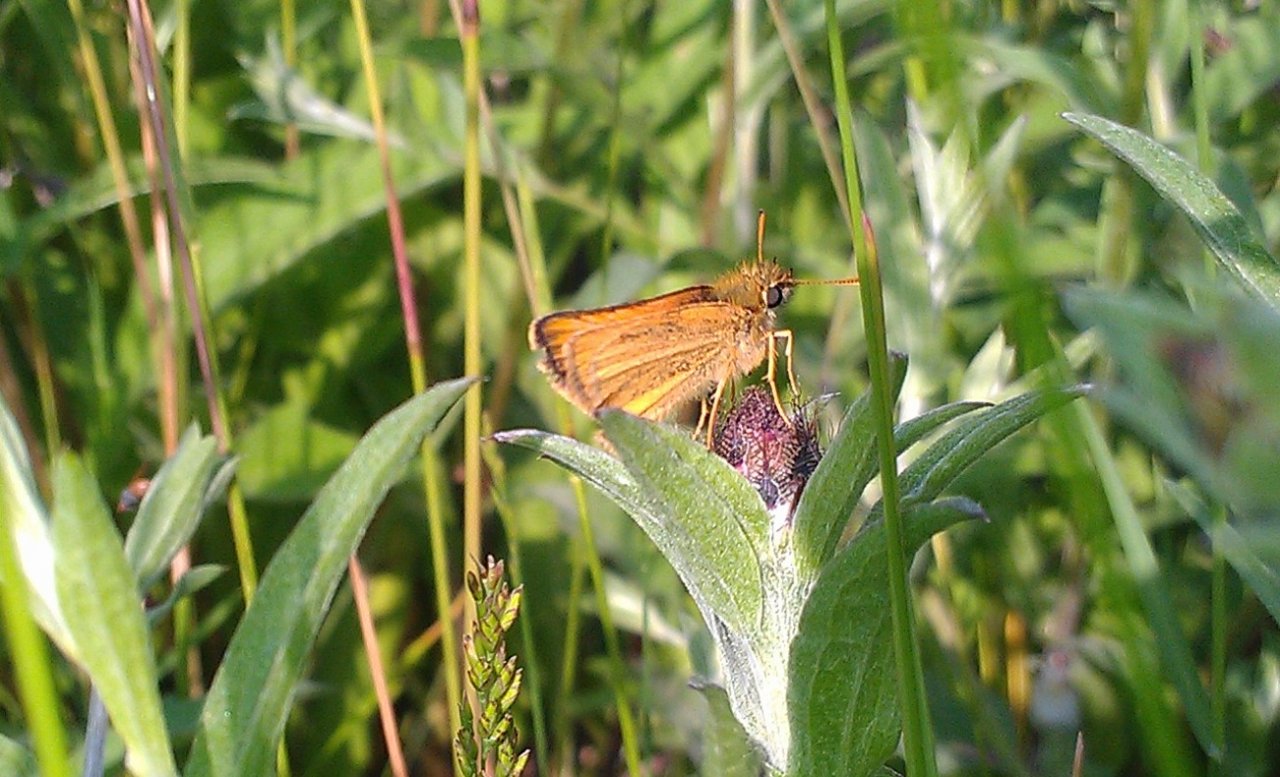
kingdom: Animalia
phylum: Arthropoda
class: Insecta
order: Lepidoptera
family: Hesperiidae
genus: Thymelicus
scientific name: Thymelicus lineola
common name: European Skipper
